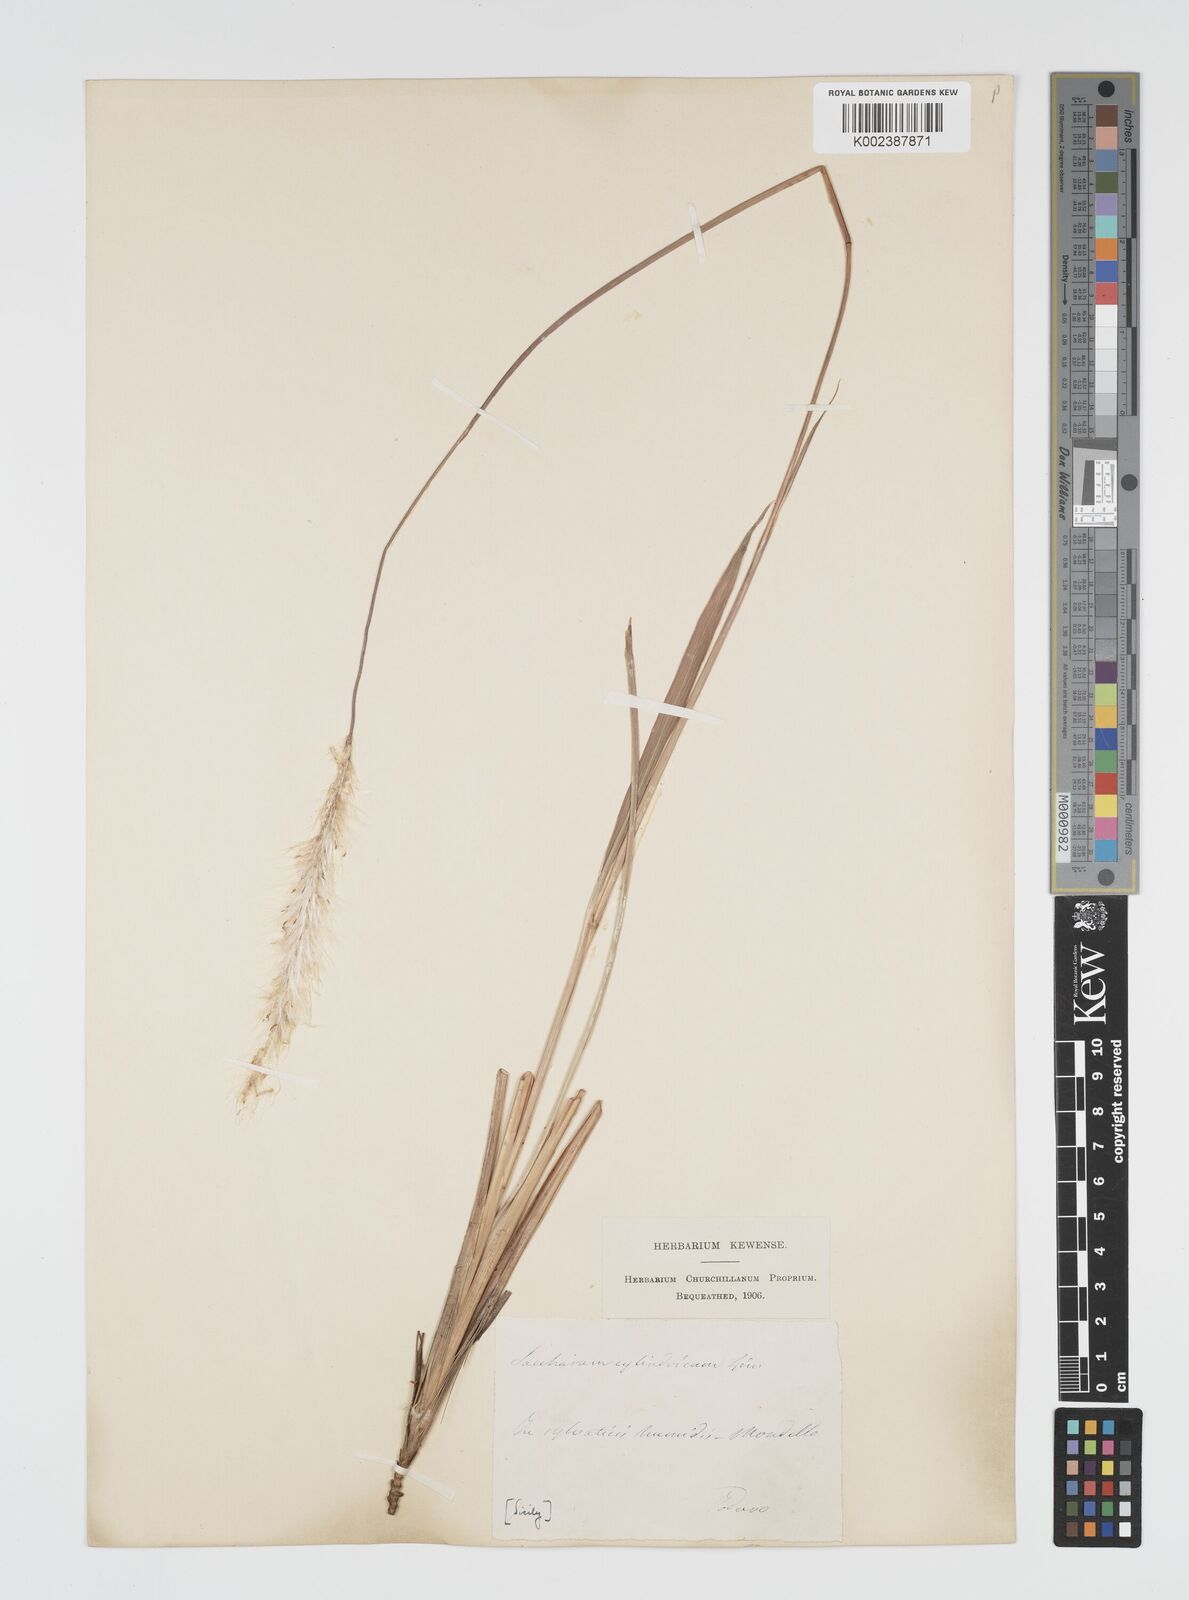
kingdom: Plantae
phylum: Tracheophyta
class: Liliopsida
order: Poales
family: Poaceae
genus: Imperata
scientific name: Imperata cylindrica
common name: Cogongrass
